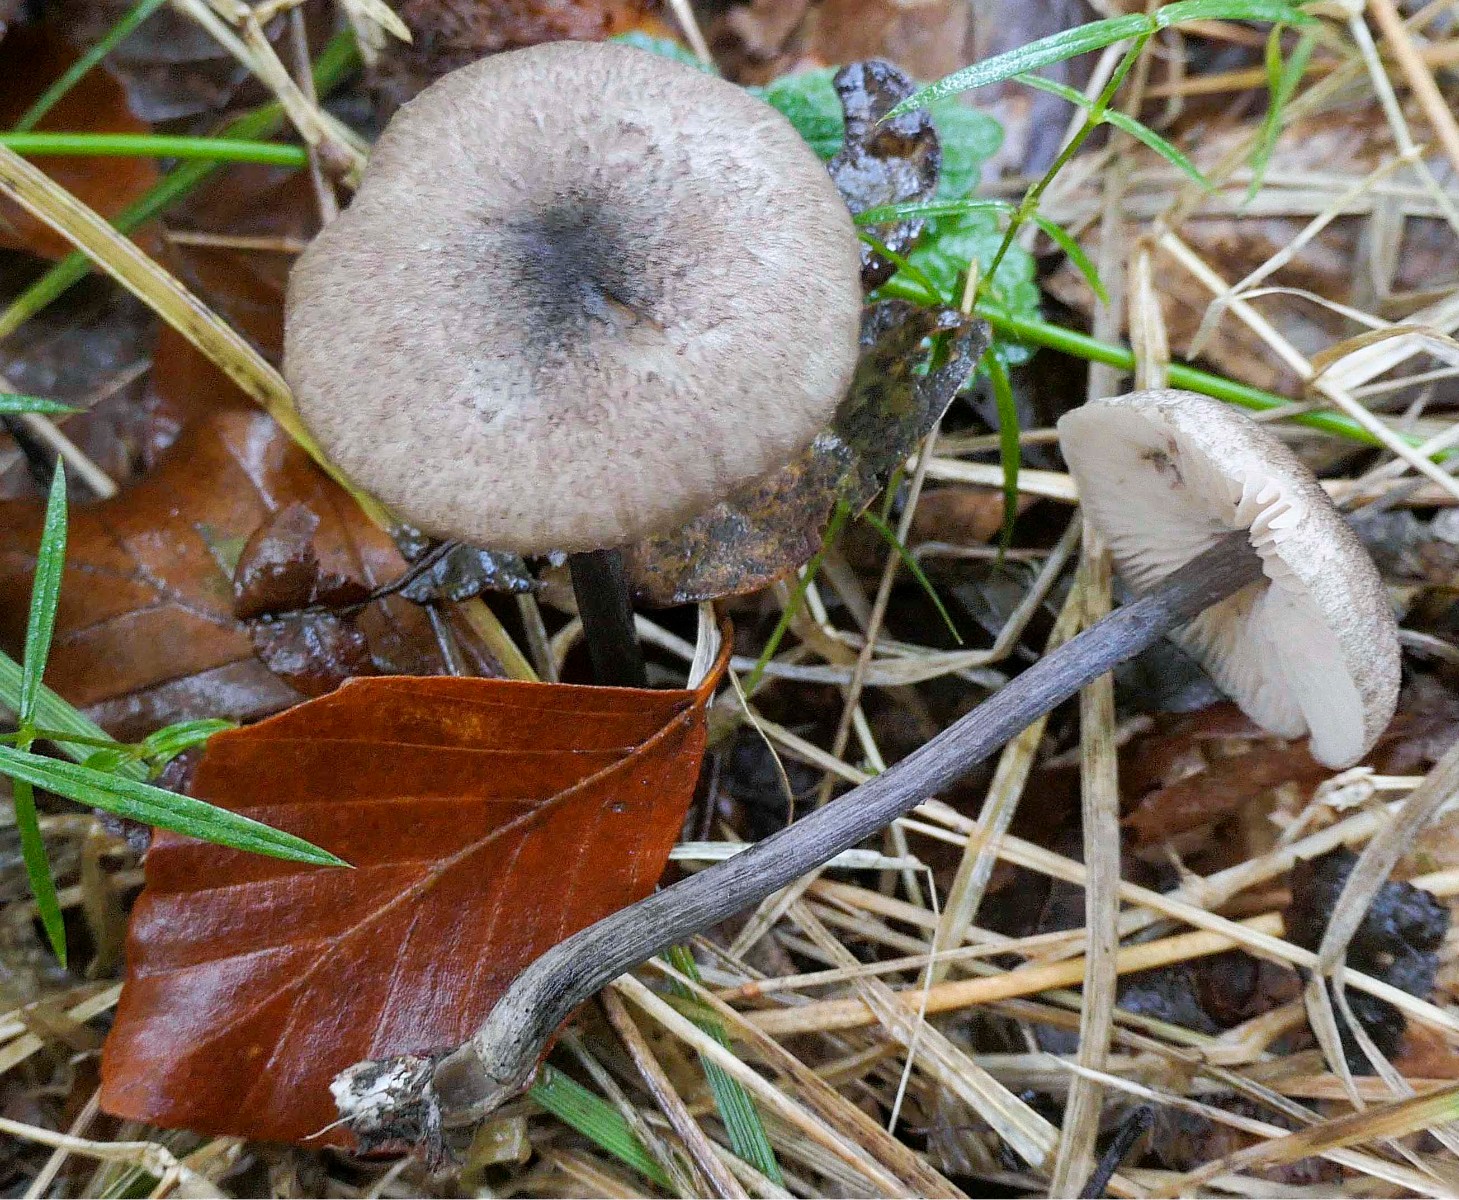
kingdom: Fungi
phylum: Basidiomycota
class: Agaricomycetes
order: Agaricales
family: Entolomataceae
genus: Entoloma
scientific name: Entoloma placidum
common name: bøge-rødblad
